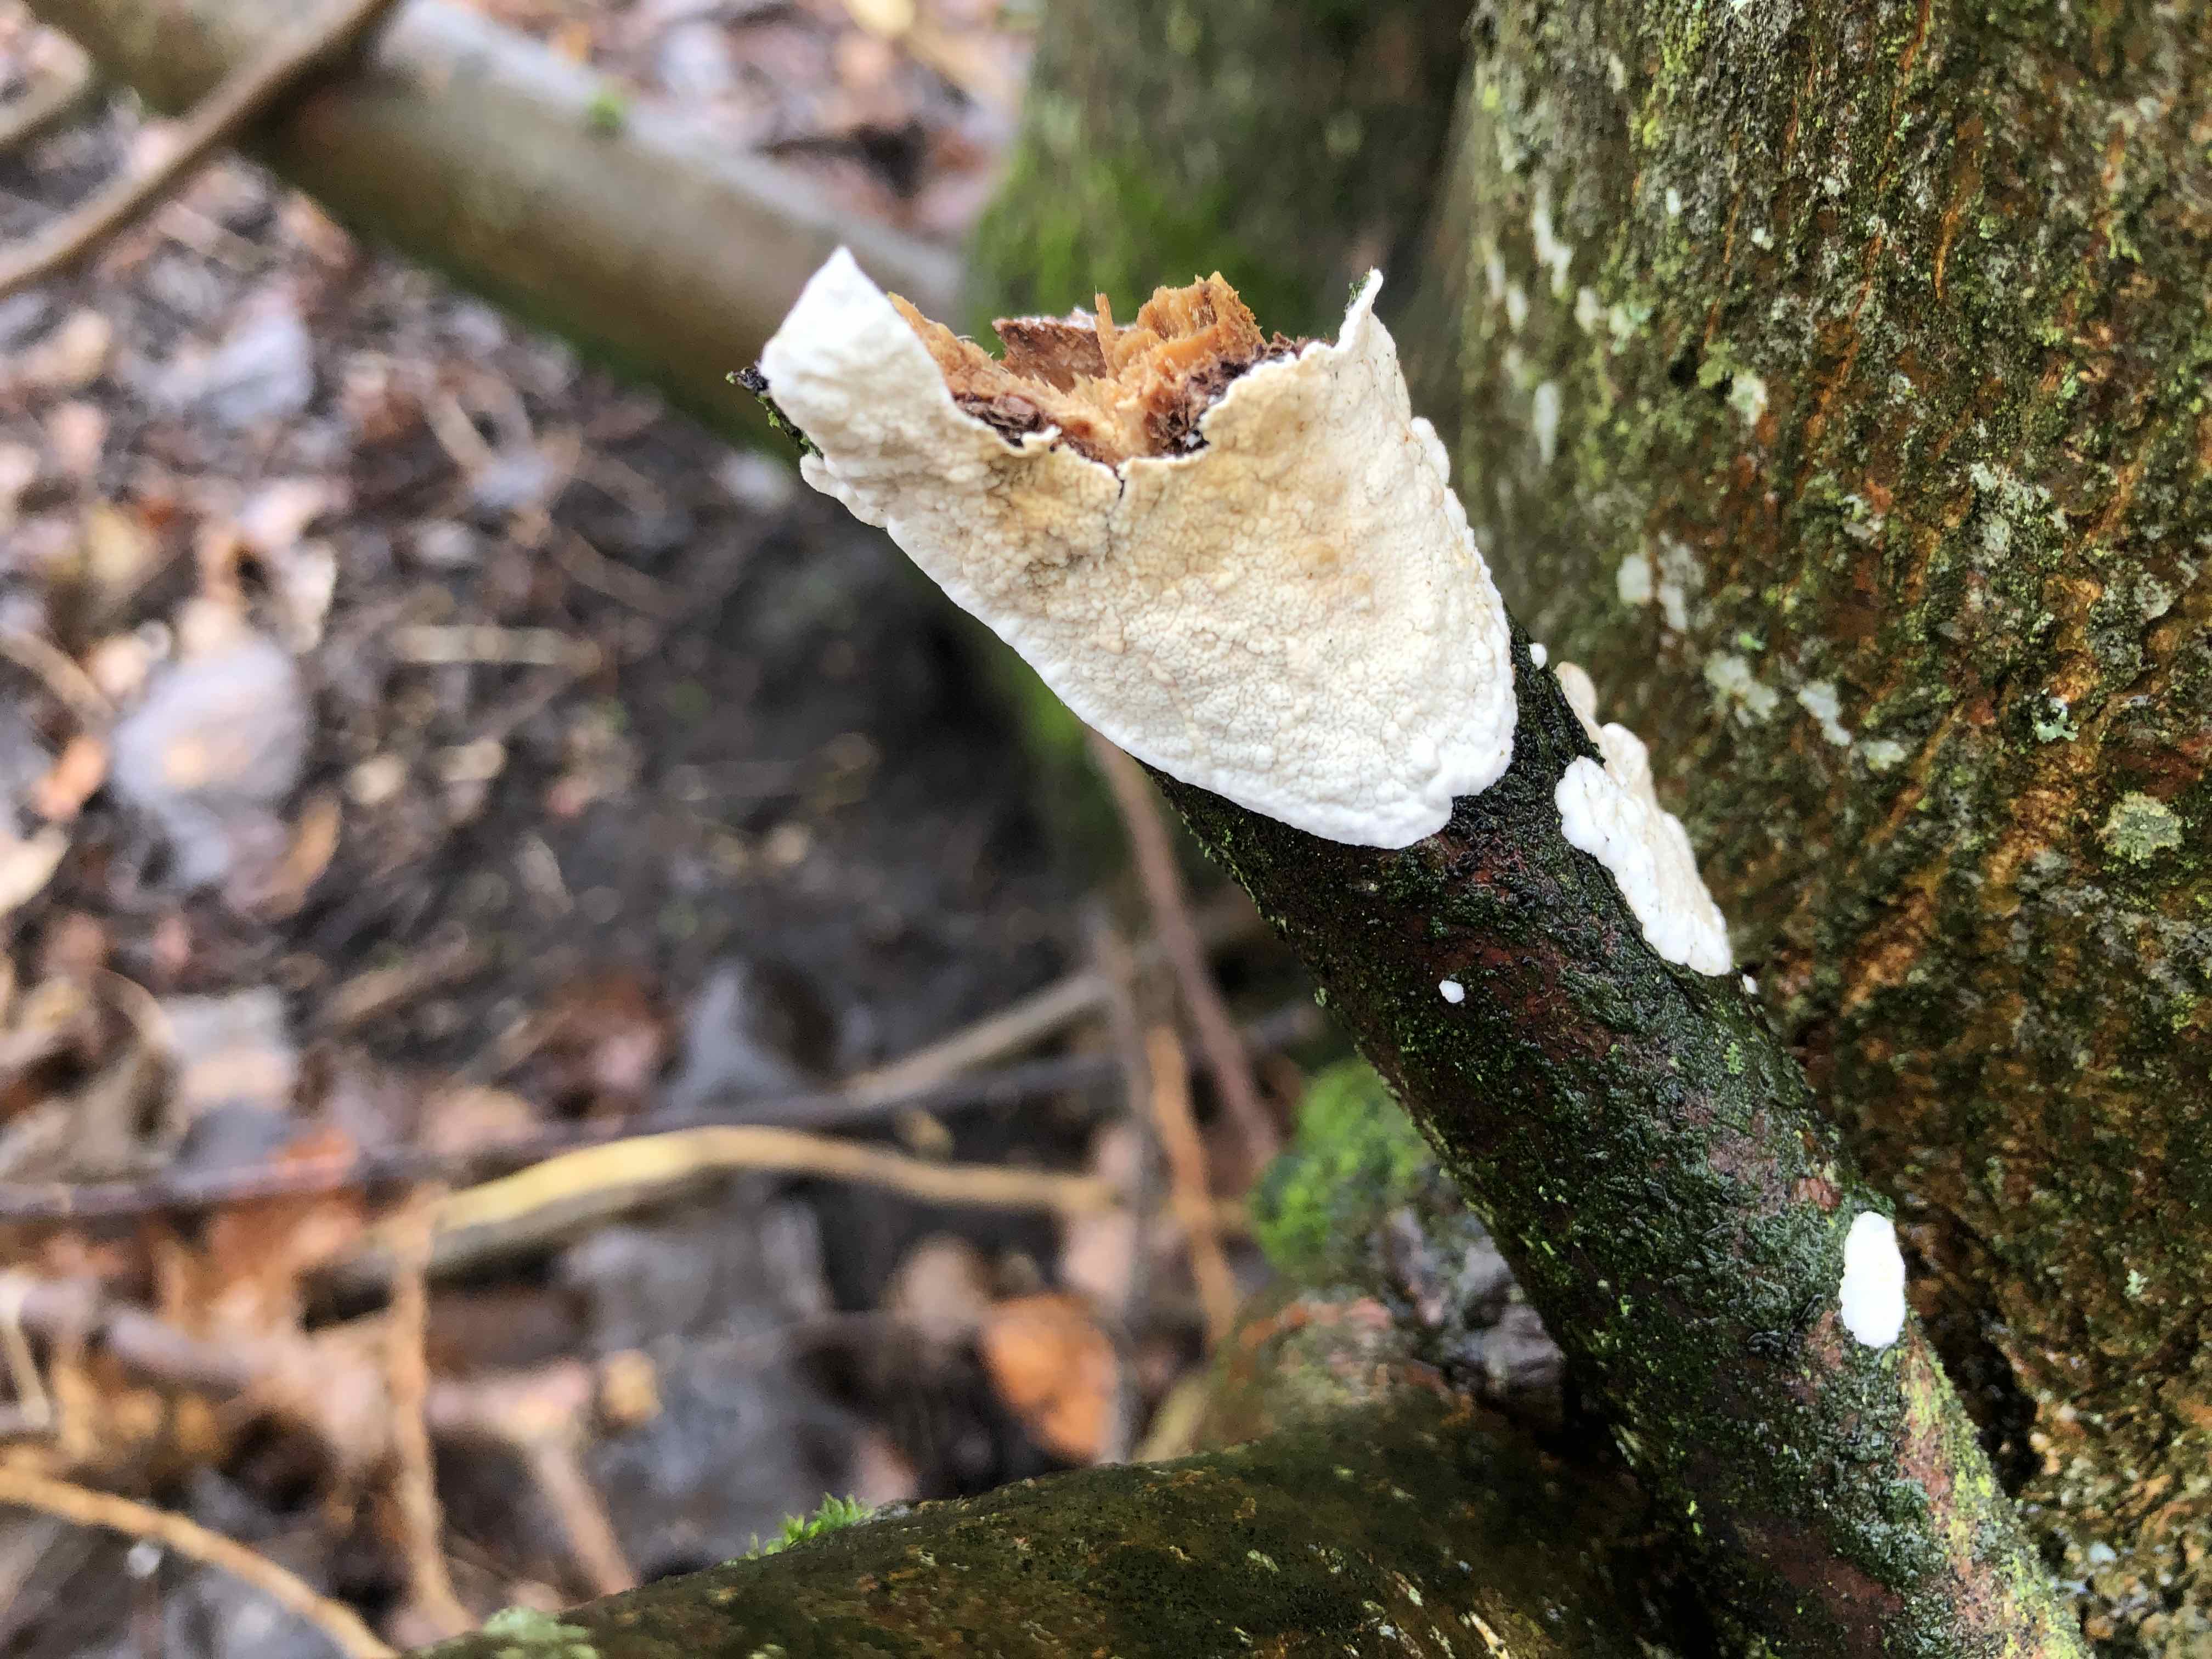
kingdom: Fungi
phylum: Basidiomycota
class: Agaricomycetes
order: Polyporales
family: Irpicaceae
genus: Byssomerulius
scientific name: Byssomerulius corium
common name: læder-åresvamp
